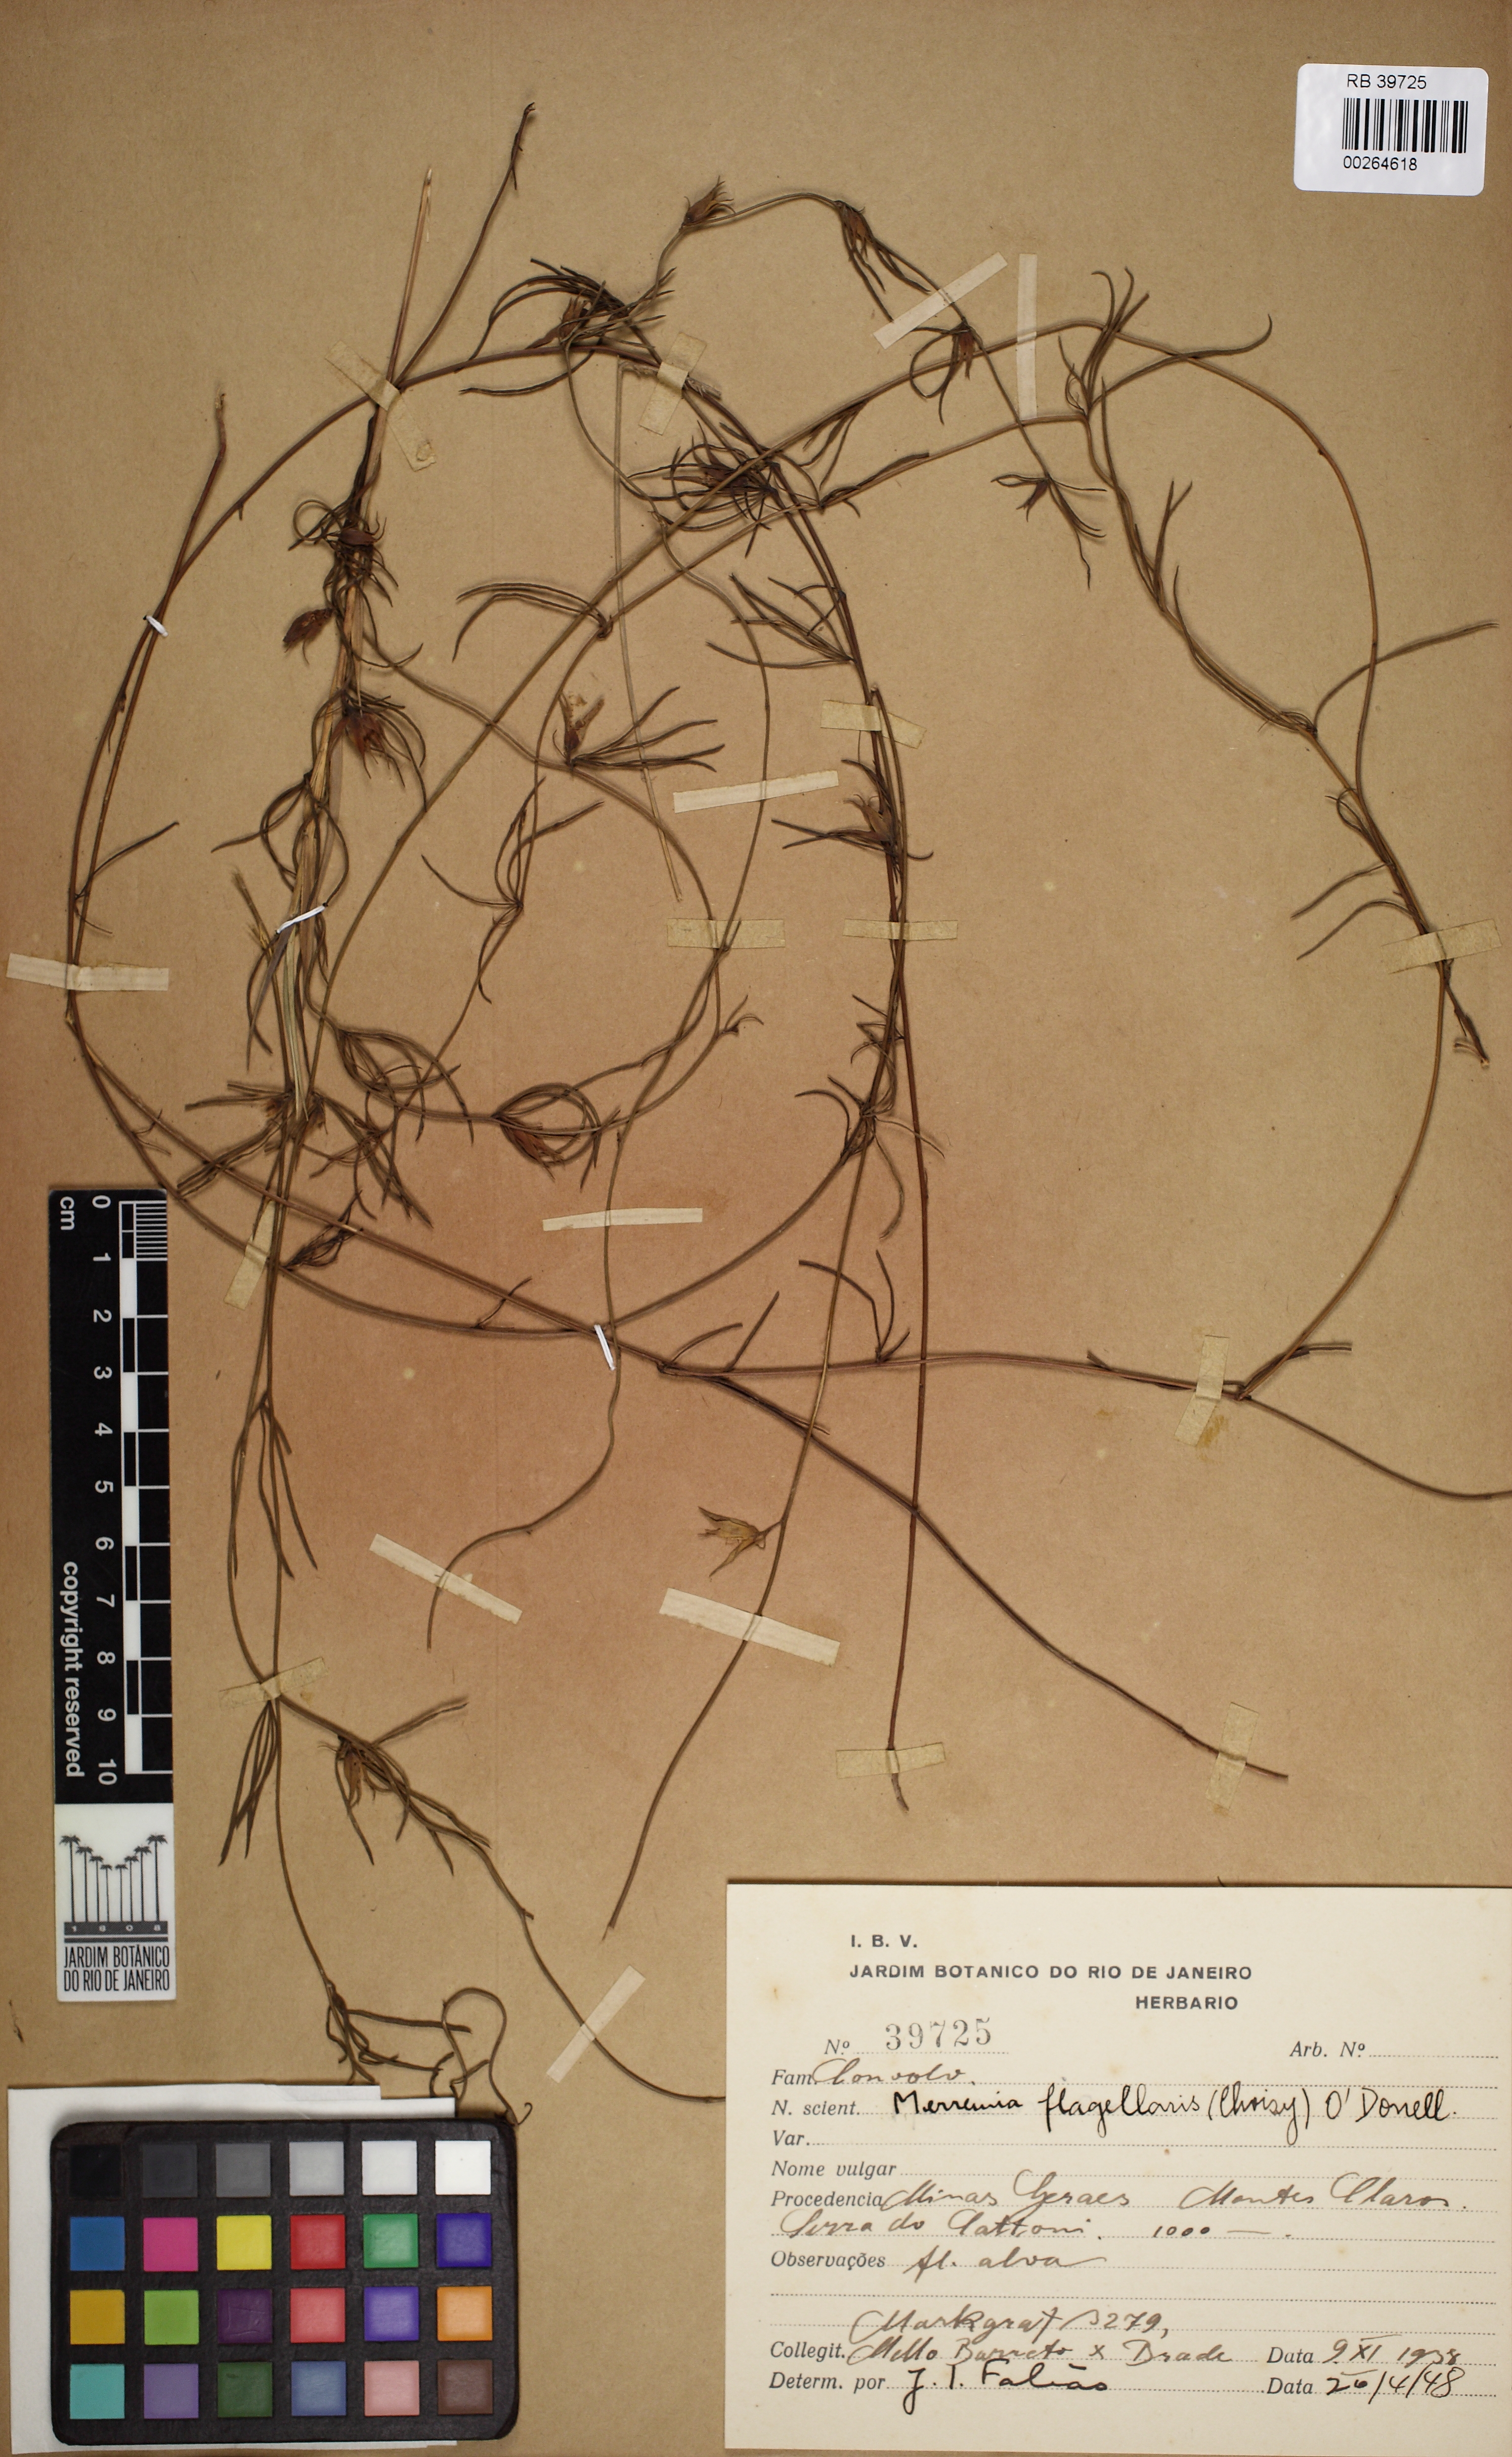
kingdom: Plantae
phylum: Tracheophyta
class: Magnoliopsida
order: Solanales
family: Convolvulaceae
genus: Distimake
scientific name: Distimake flagellaris
